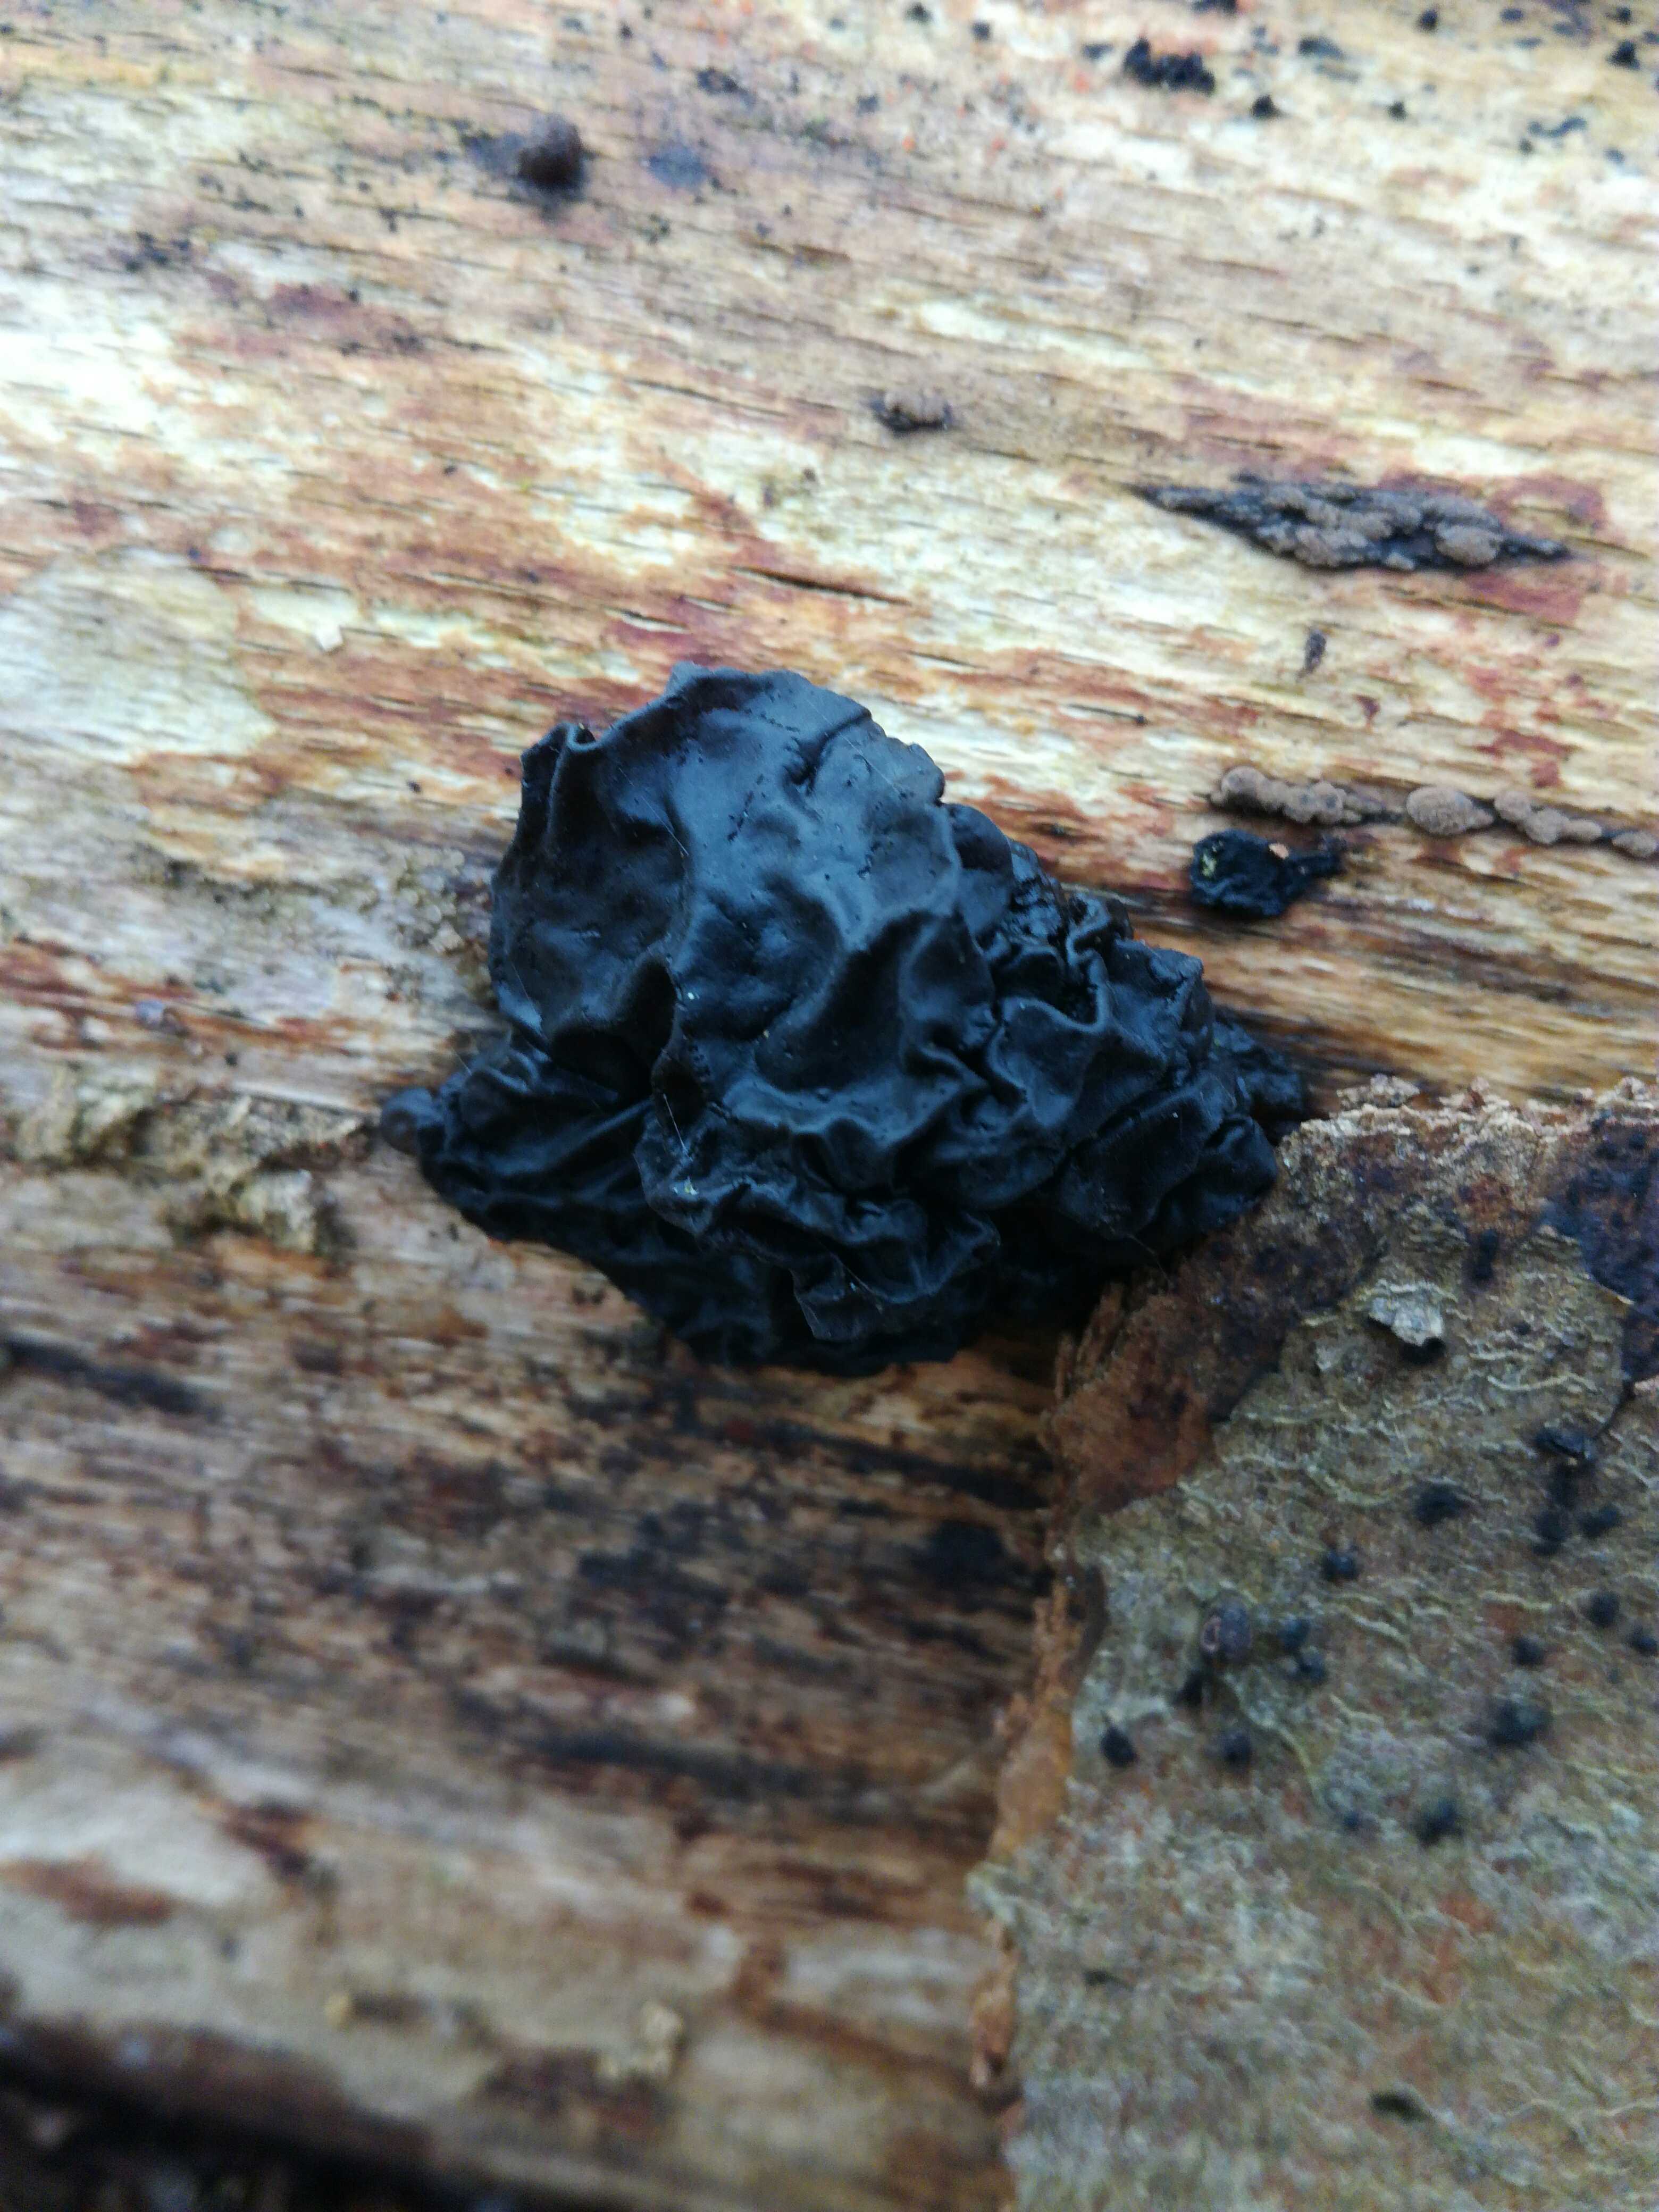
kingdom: Fungi
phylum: Basidiomycota
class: Agaricomycetes
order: Auriculariales
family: Auriculariaceae
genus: Exidia
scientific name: Exidia nigricans
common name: almindelig bævretop
